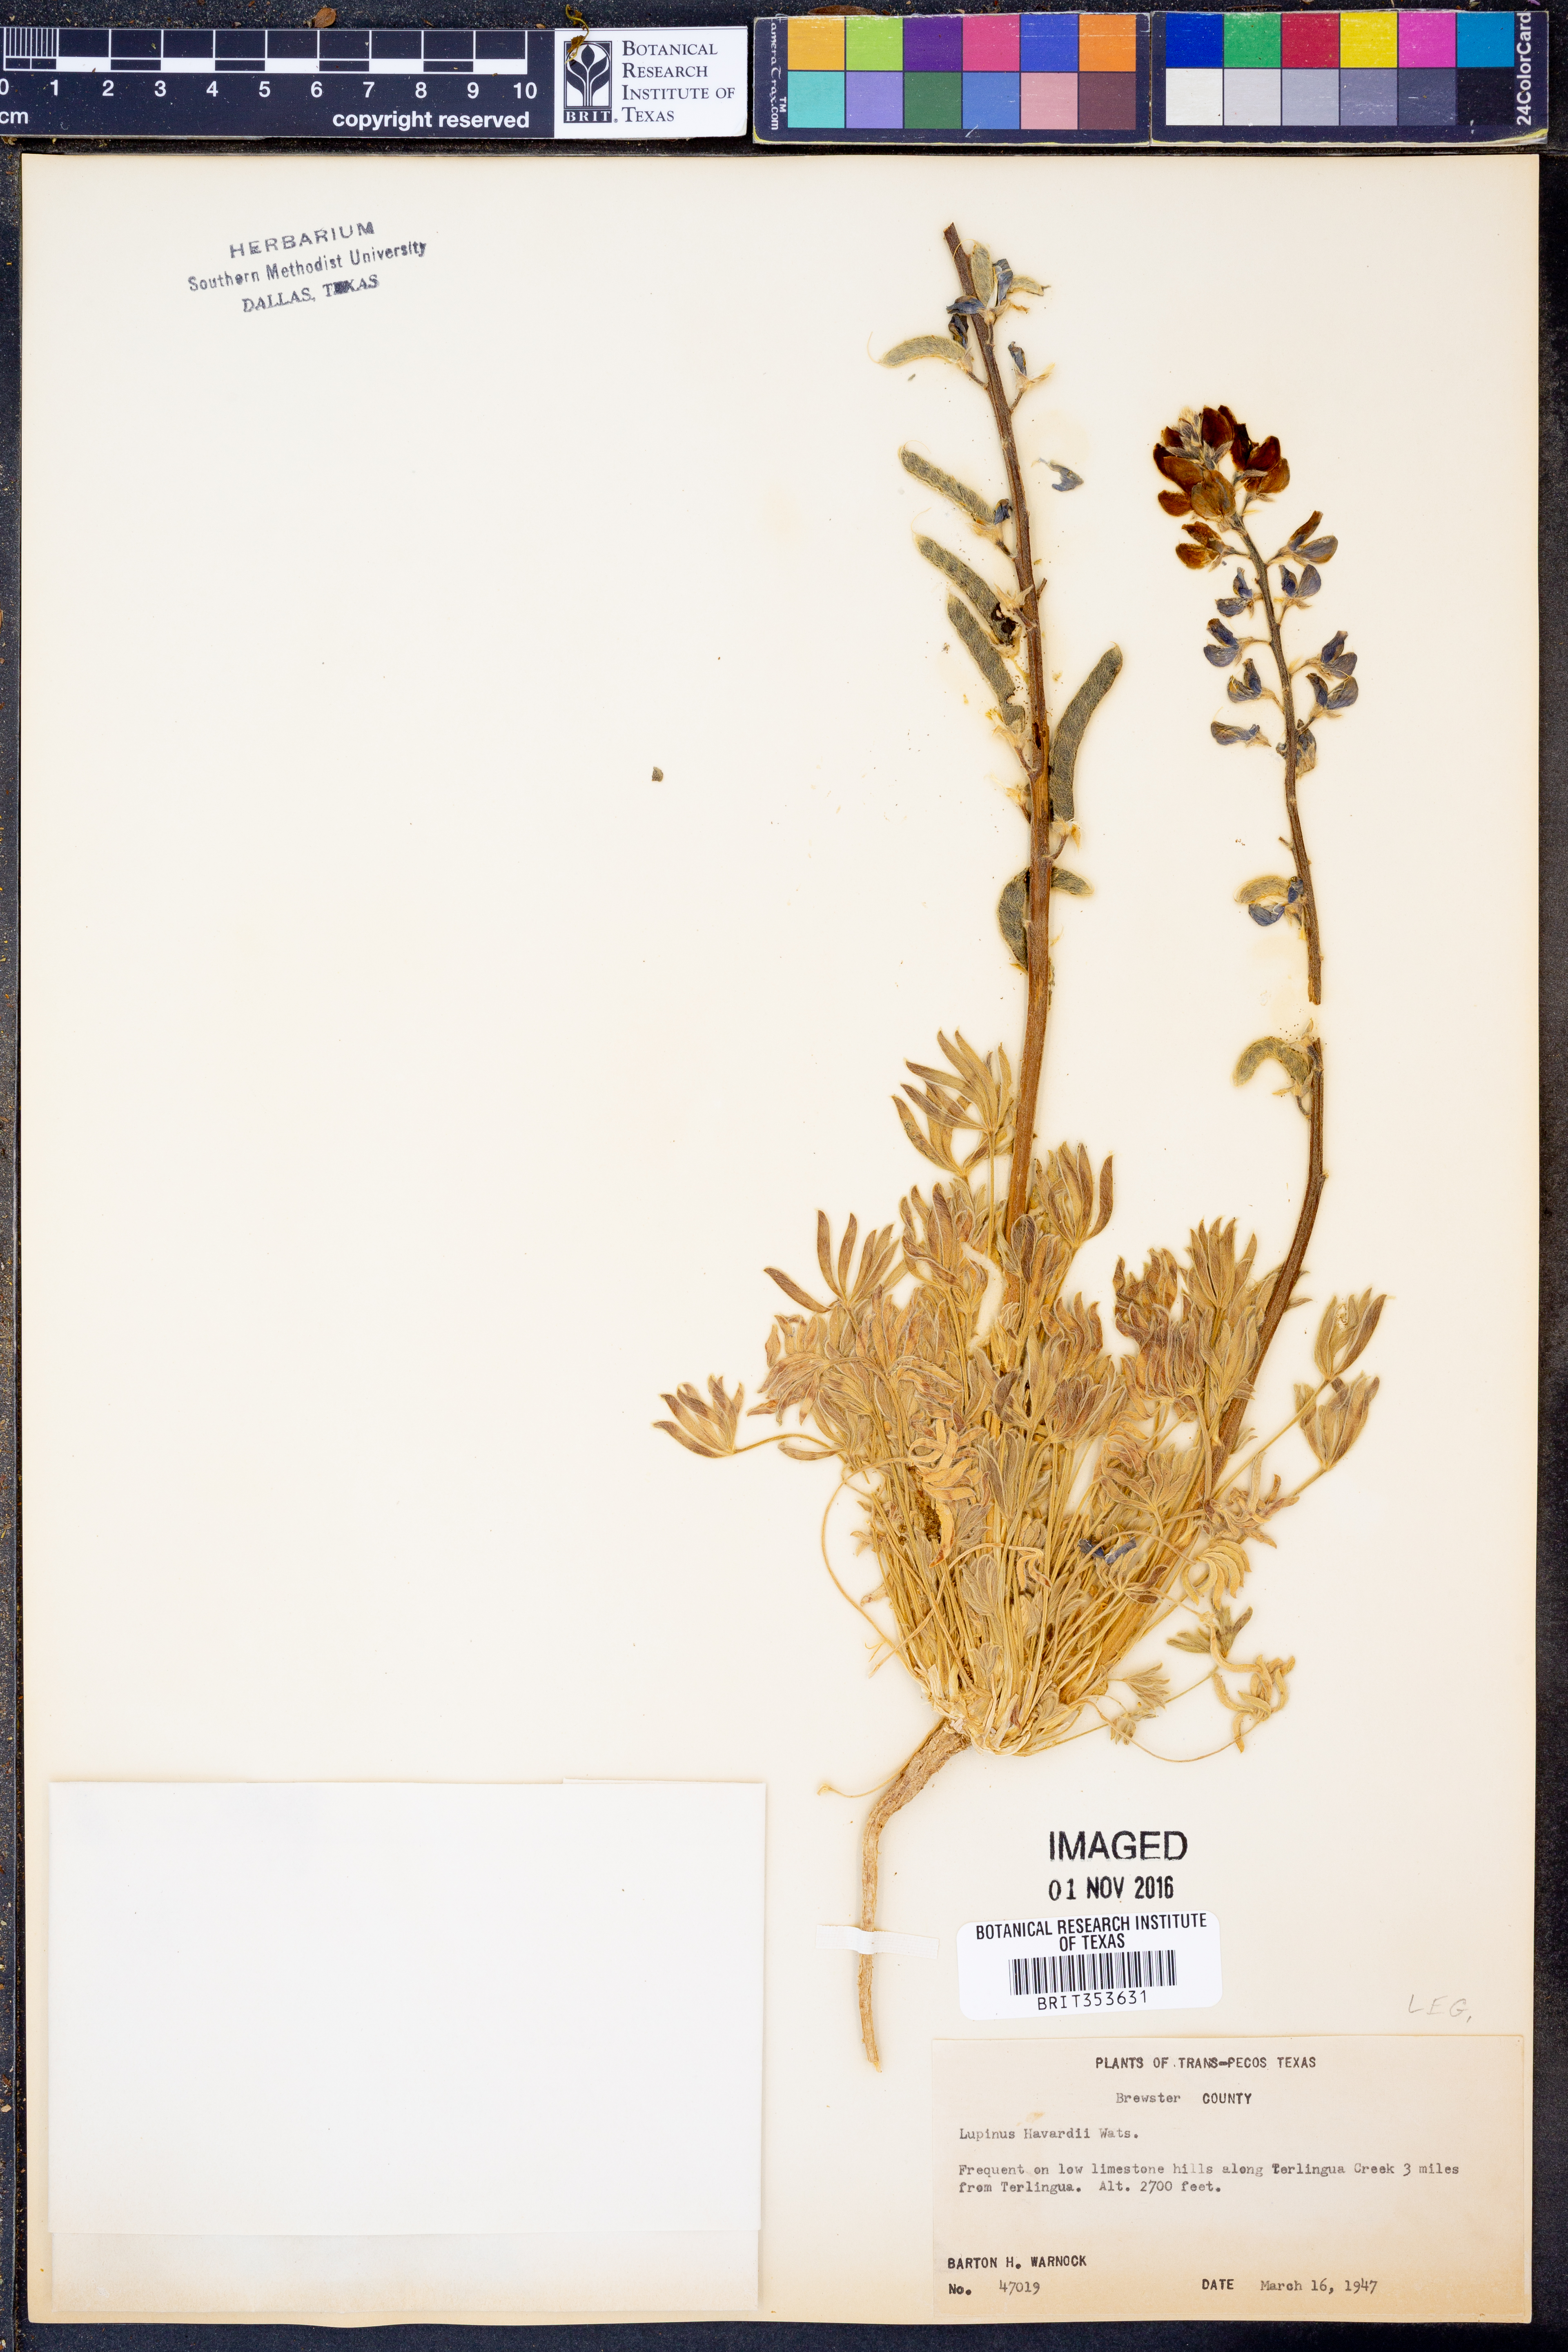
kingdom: Plantae
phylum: Tracheophyta
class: Magnoliopsida
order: Fabales
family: Fabaceae
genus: Lupinus
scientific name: Lupinus havardii
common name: Chisos bluebonnet
